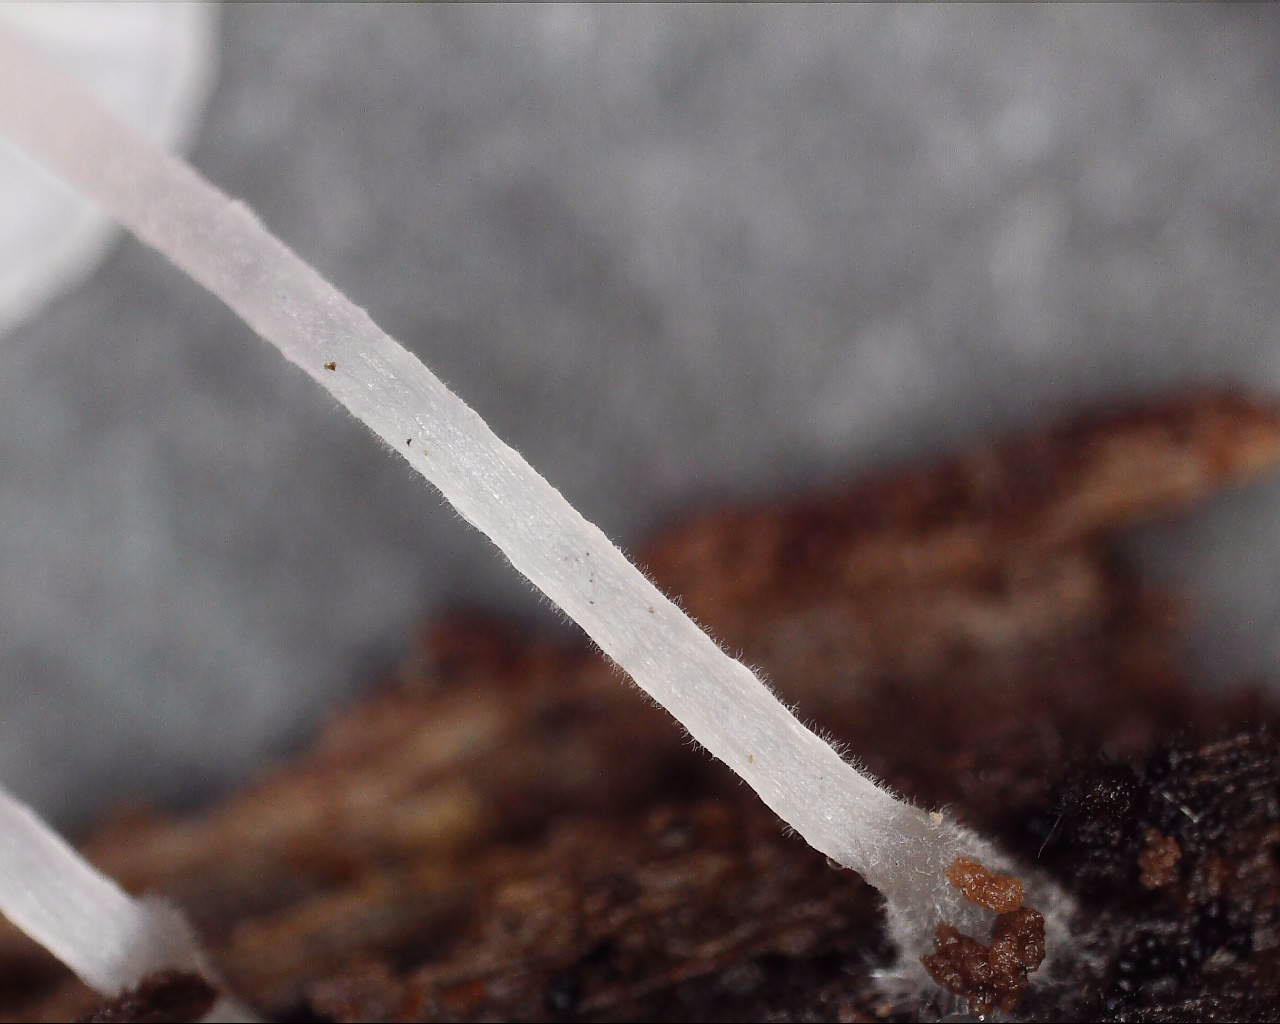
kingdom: Fungi
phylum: Basidiomycota
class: Agaricomycetes
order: Agaricales
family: Tricholomataceae
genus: Delicatula
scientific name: Delicatula integrella
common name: slørhuesvamp
